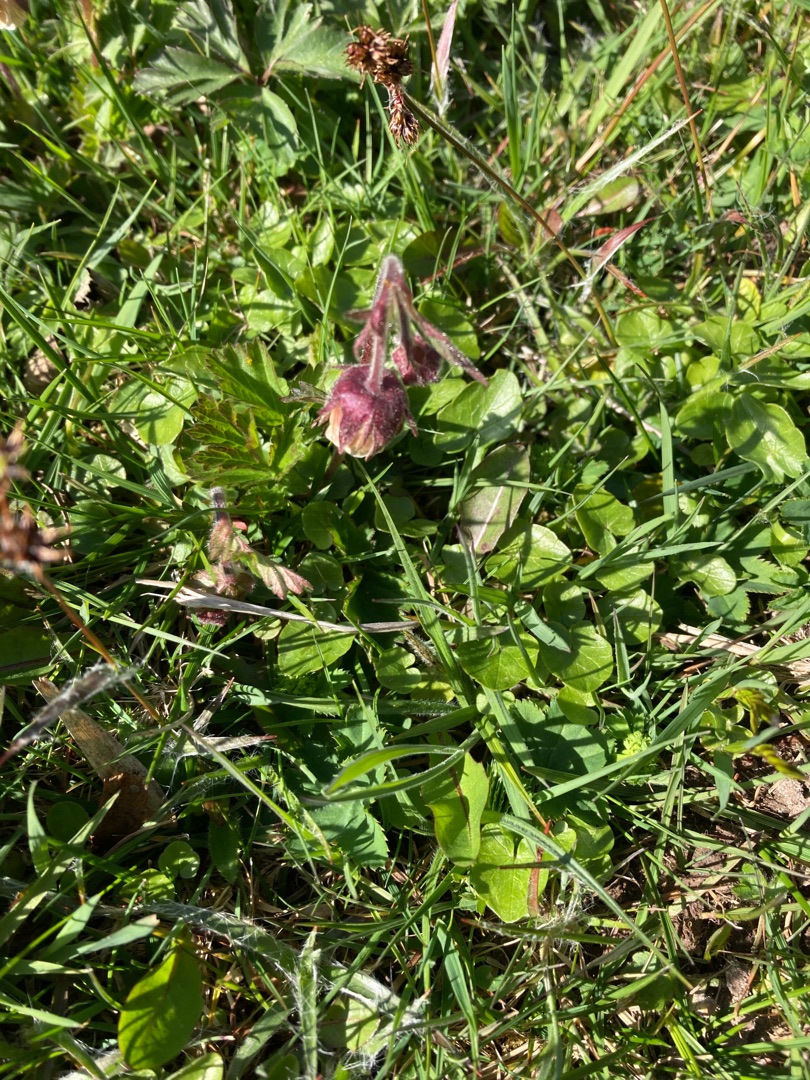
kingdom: Plantae
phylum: Tracheophyta
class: Magnoliopsida
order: Rosales
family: Rosaceae
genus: Geum
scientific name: Geum rivale
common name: Eng-nellikerod
